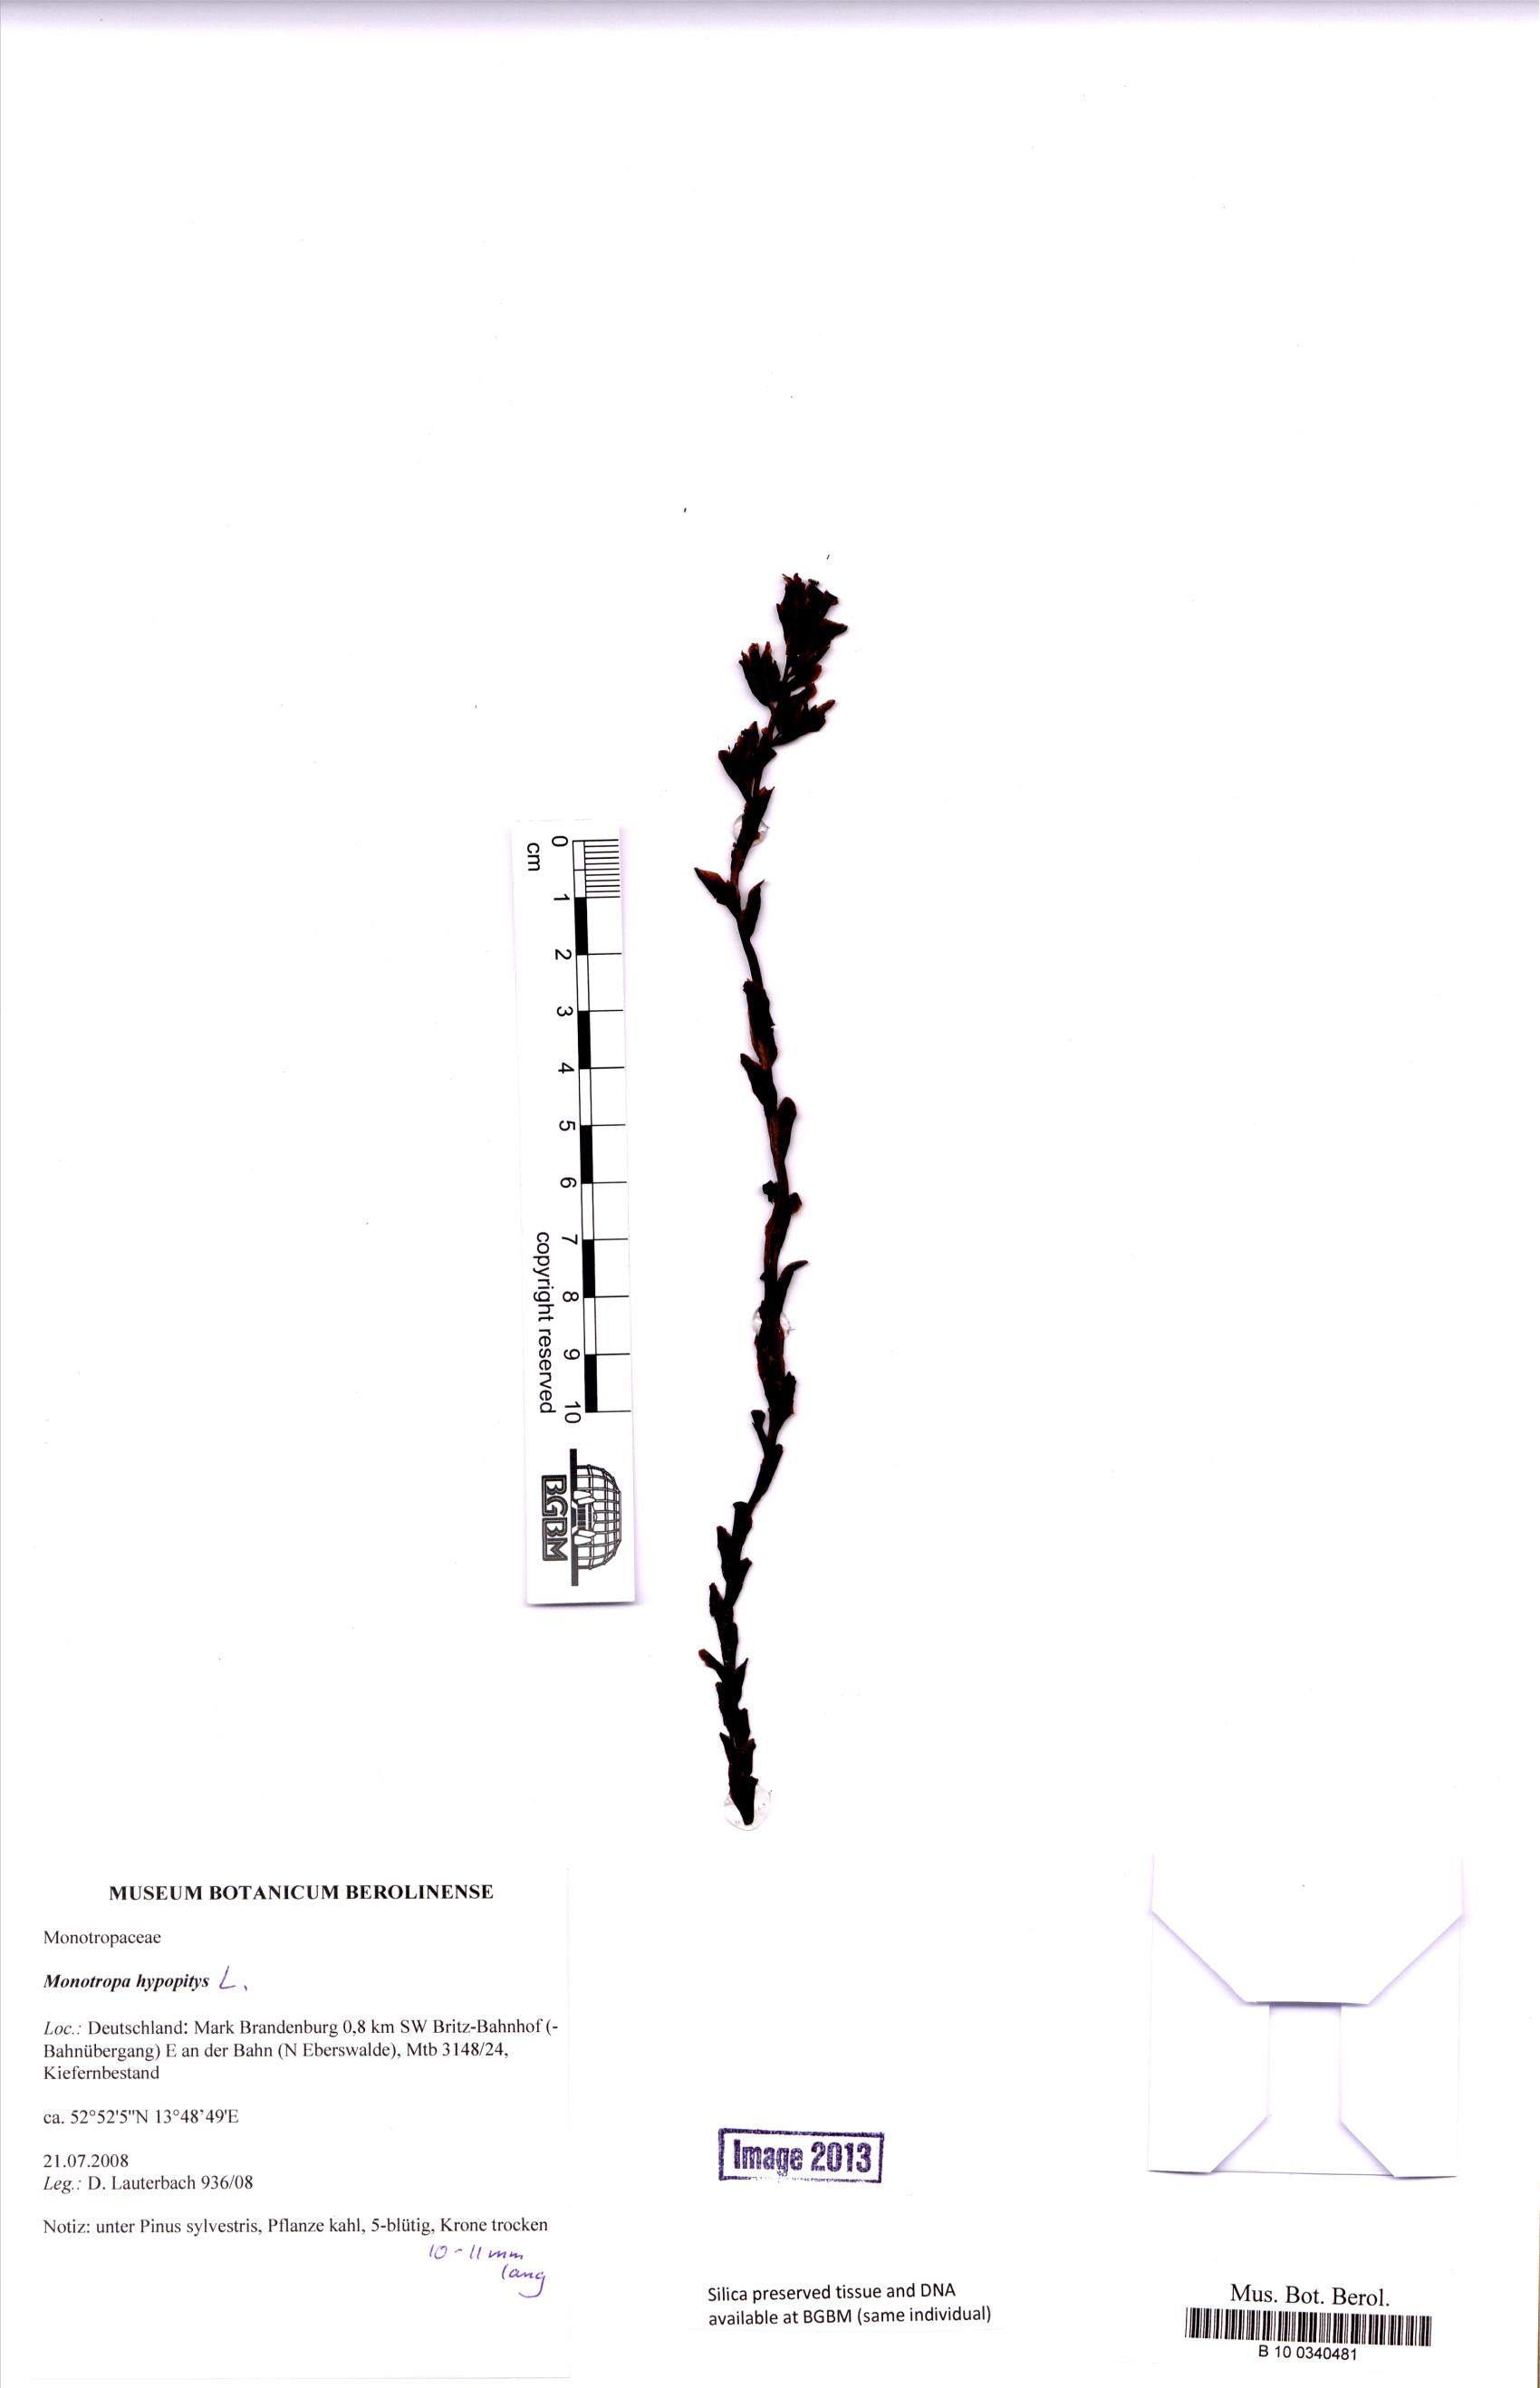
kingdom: Plantae
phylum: Tracheophyta
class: Magnoliopsida
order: Ericales
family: Ericaceae
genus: Hypopitys
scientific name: Hypopitys monotropa
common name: Yellow bird's-nest
